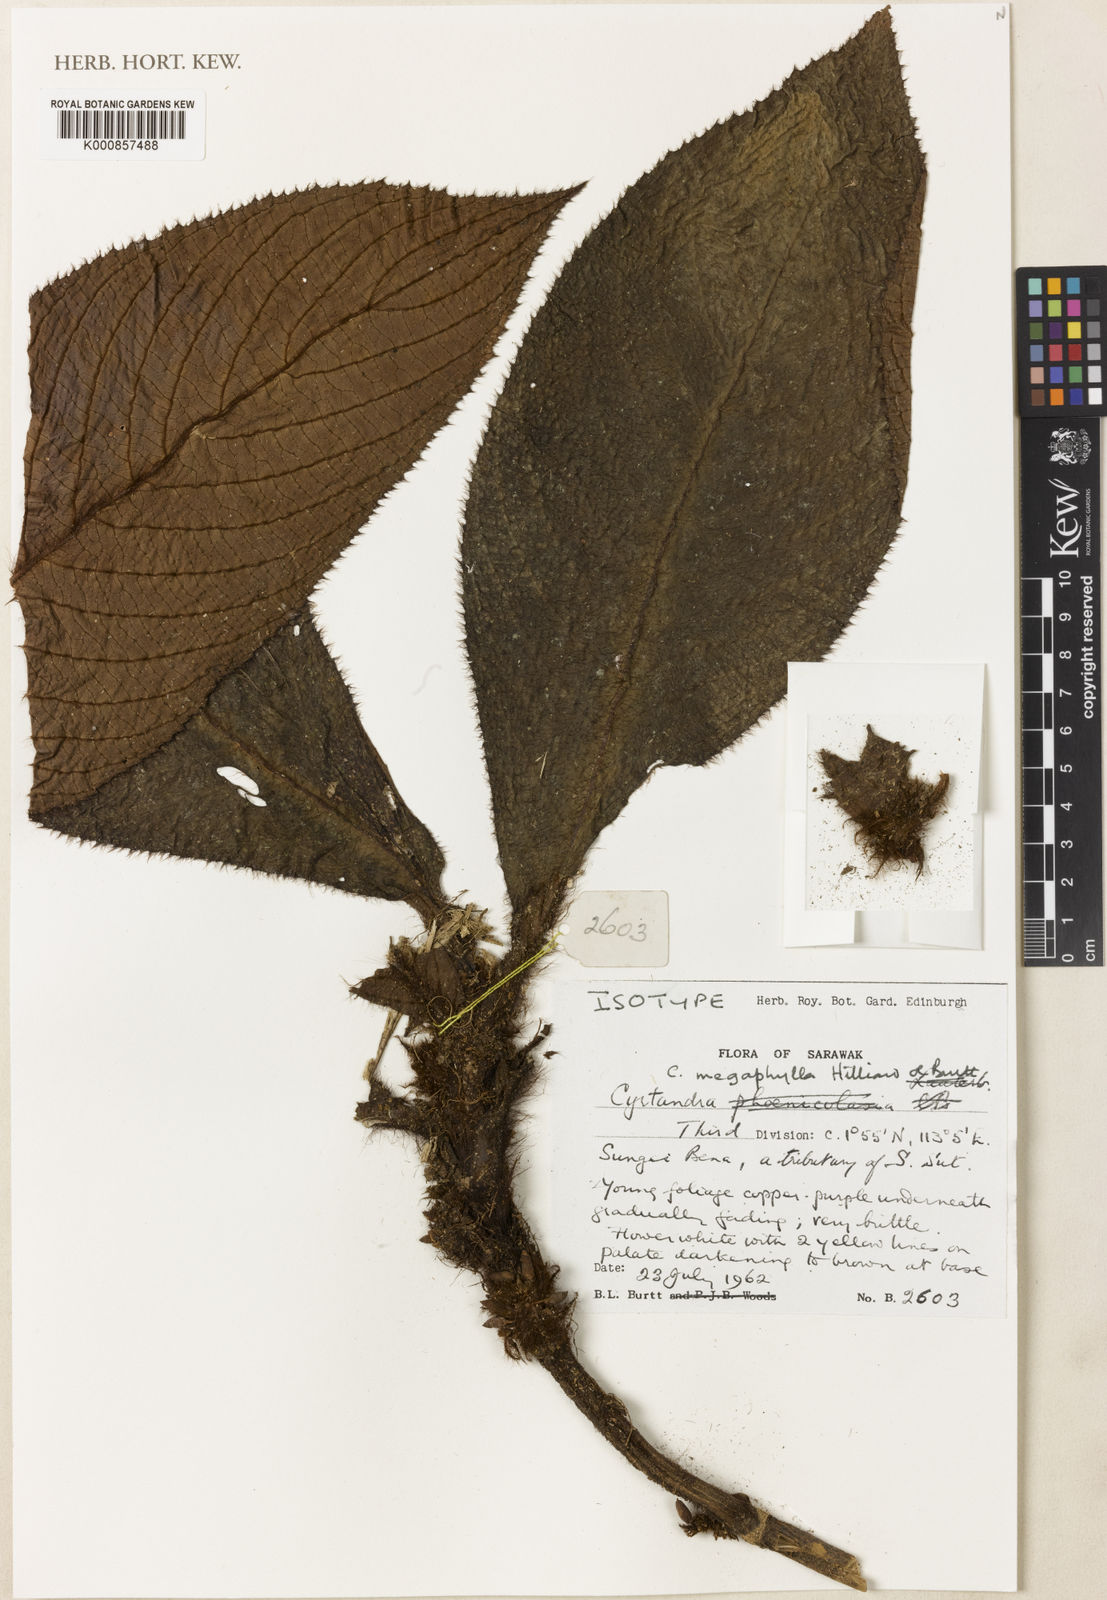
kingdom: Plantae
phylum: Tracheophyta
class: Magnoliopsida
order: Lamiales
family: Gesneriaceae
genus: Cyrtandra
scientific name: Cyrtandra megaphylla
